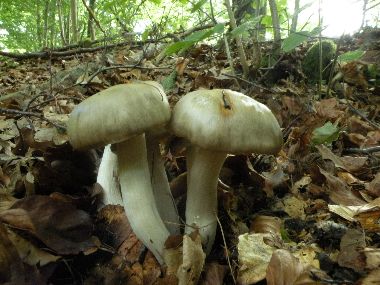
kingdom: Fungi
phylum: Basidiomycota
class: Agaricomycetes
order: Agaricales
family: Entolomataceae
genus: Entoloma
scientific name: Entoloma rhodopolium
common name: skov-rødblad
